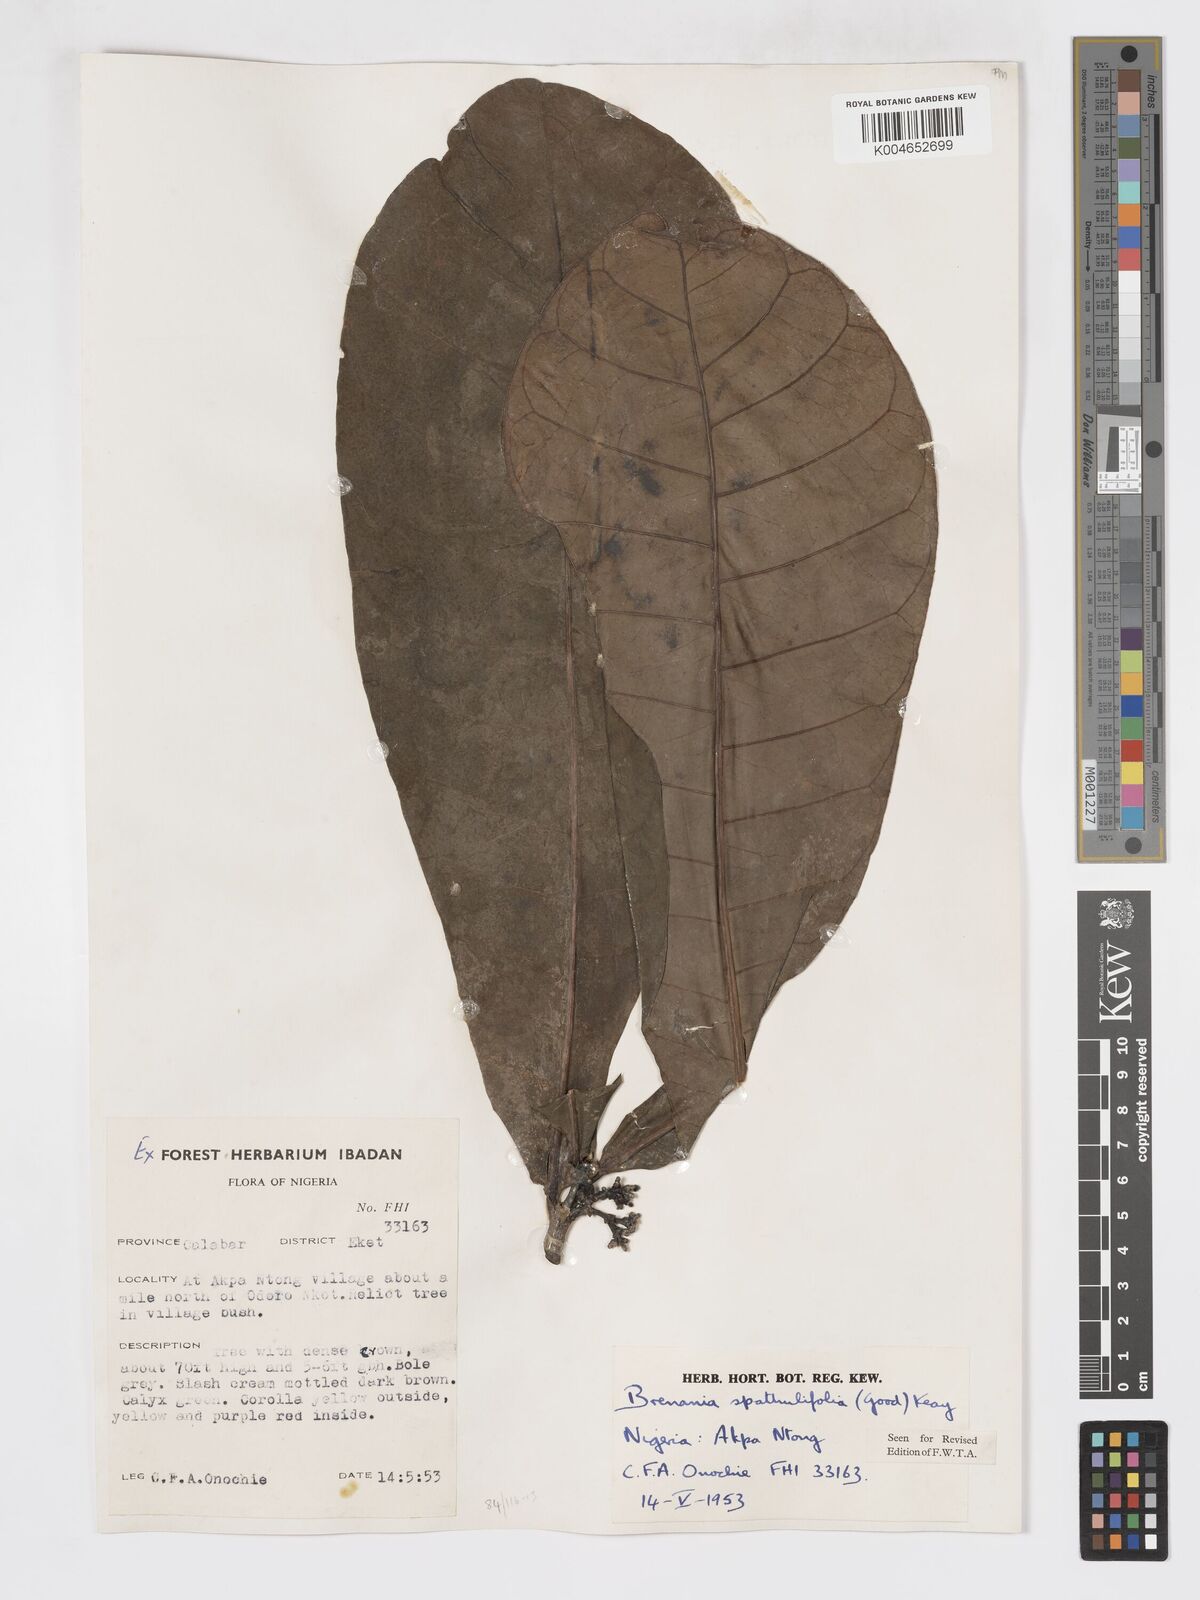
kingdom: Plantae
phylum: Tracheophyta
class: Magnoliopsida
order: Gentianales
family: Rubiaceae
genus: Brenania
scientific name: Brenania brieyi
